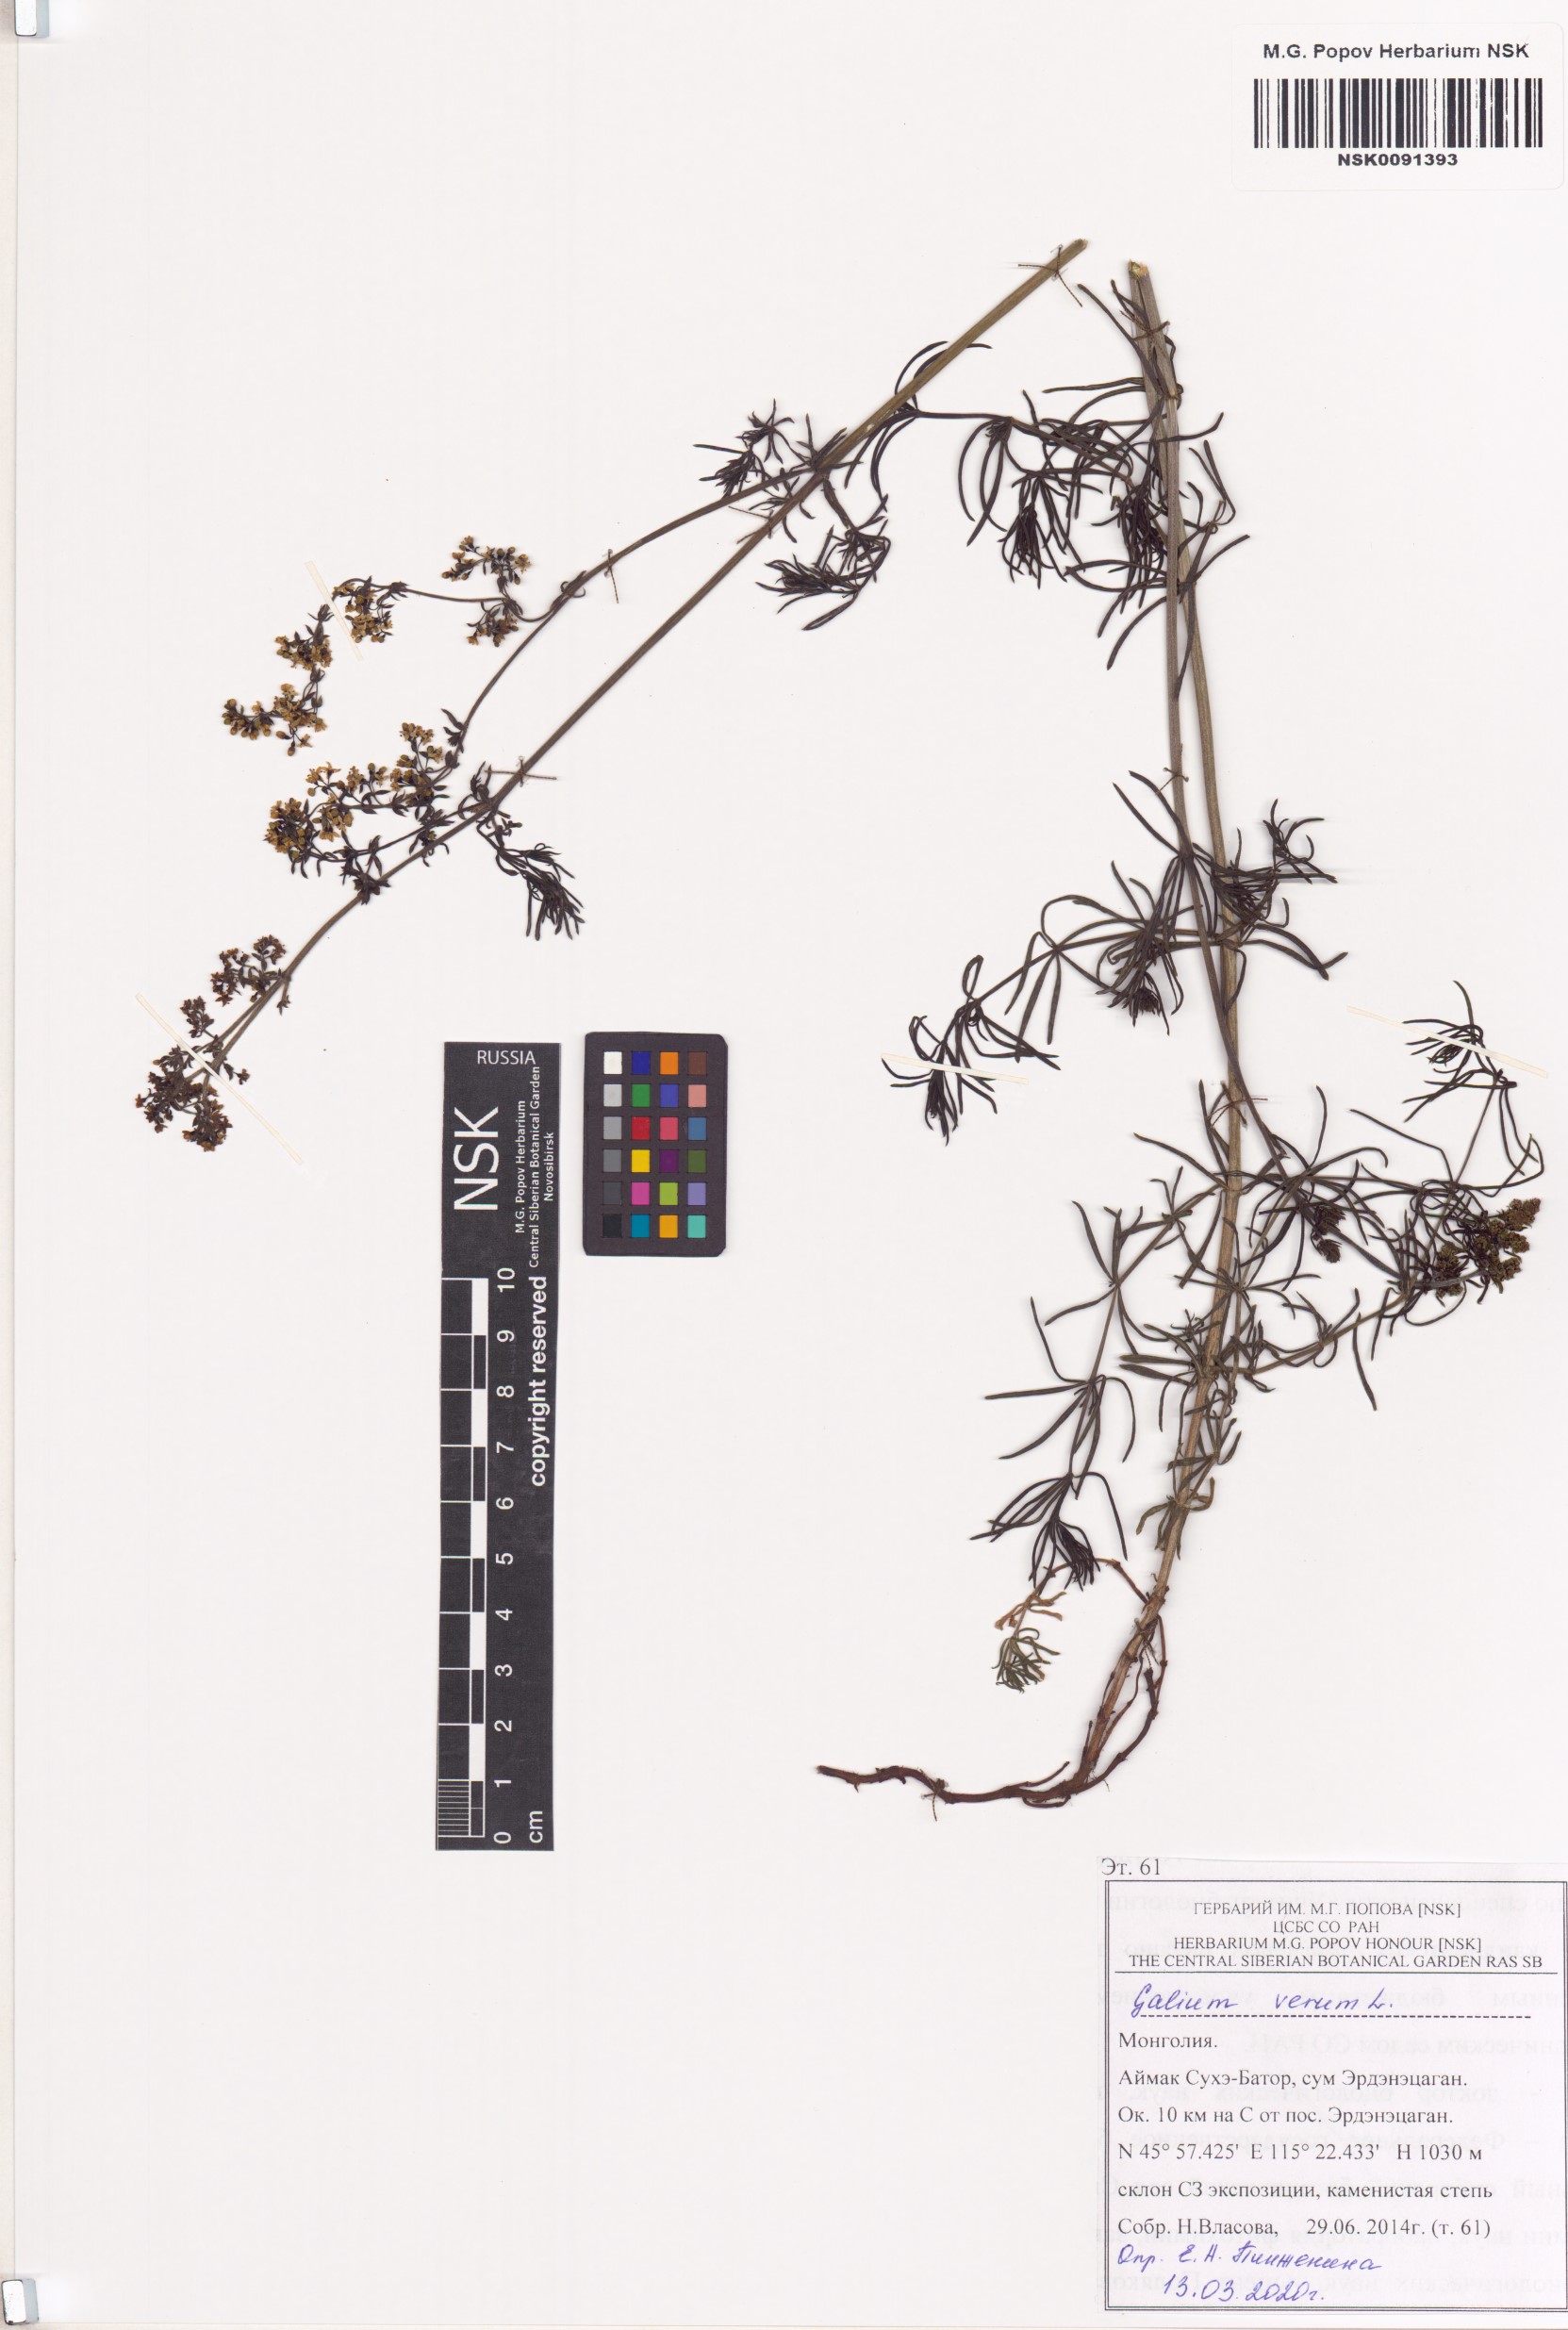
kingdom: Plantae
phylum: Tracheophyta
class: Magnoliopsida
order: Gentianales
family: Rubiaceae
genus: Galium
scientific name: Galium verum
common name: Lady's bedstraw
